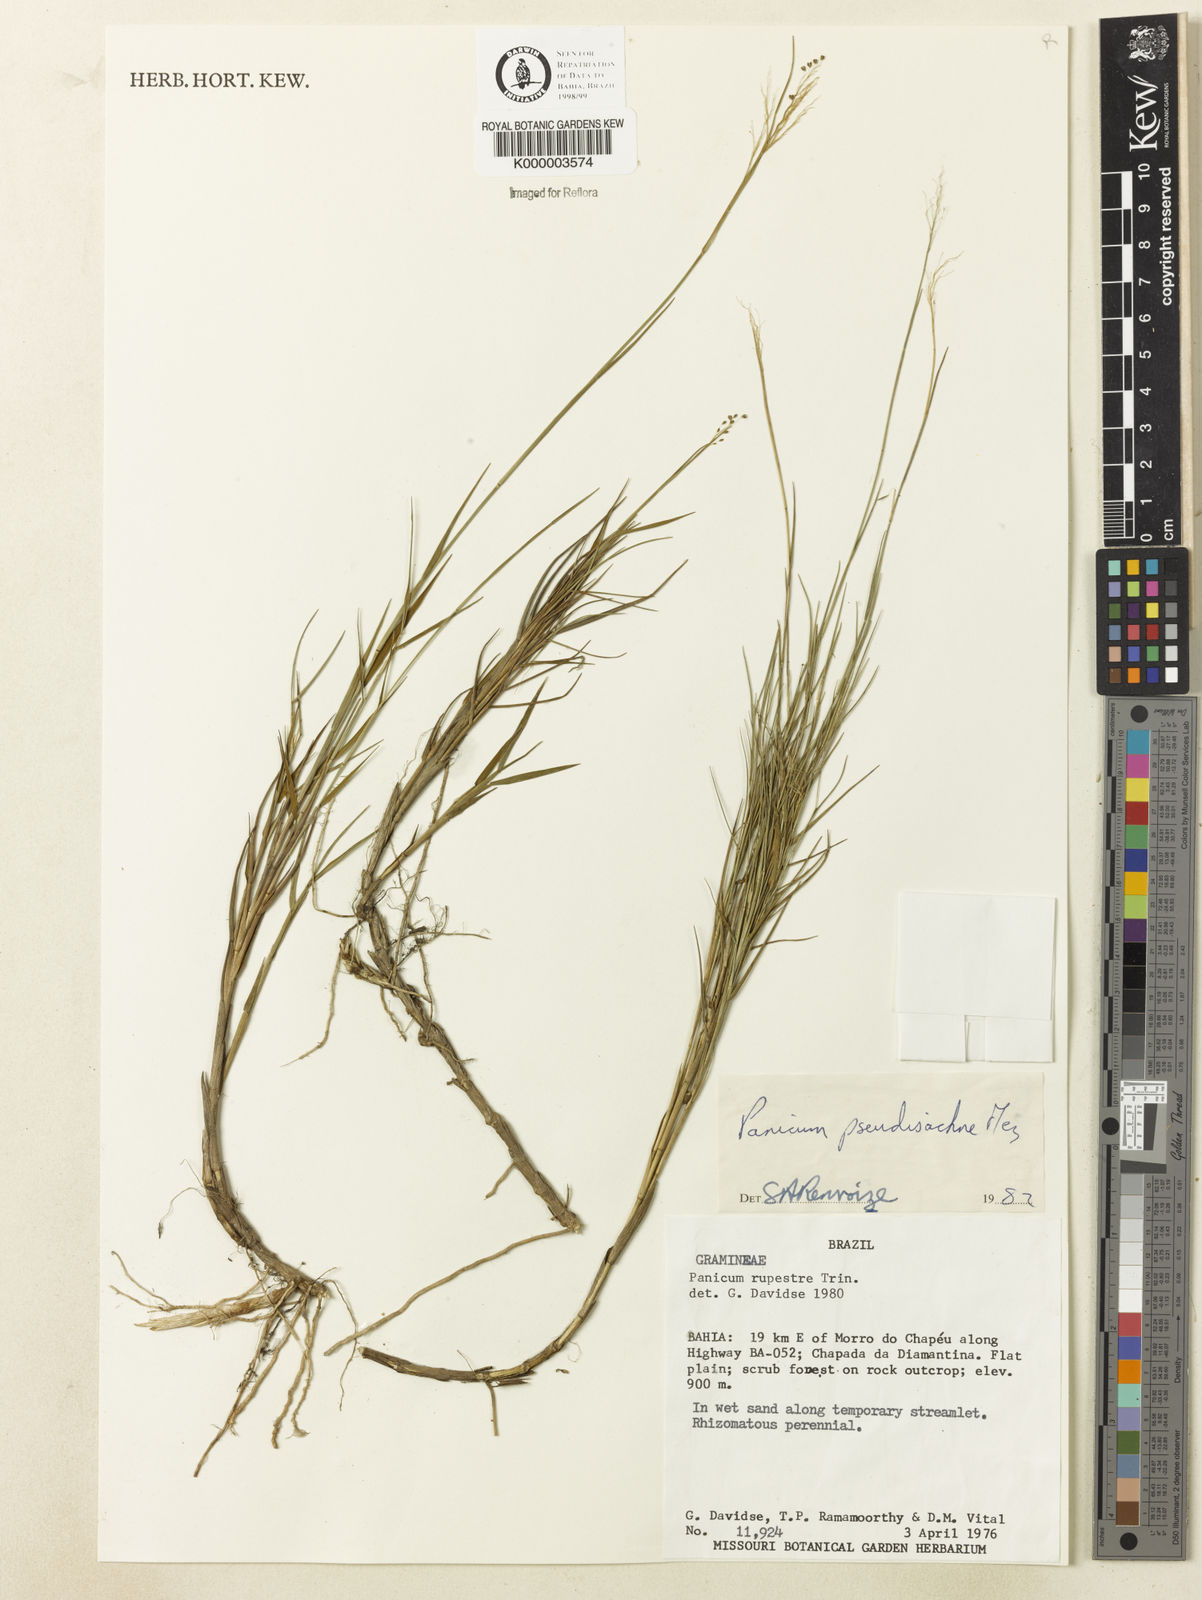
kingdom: Plantae
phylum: Tracheophyta
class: Liliopsida
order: Poales
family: Poaceae
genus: Trichanthecium
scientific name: Trichanthecium pseudisachne
